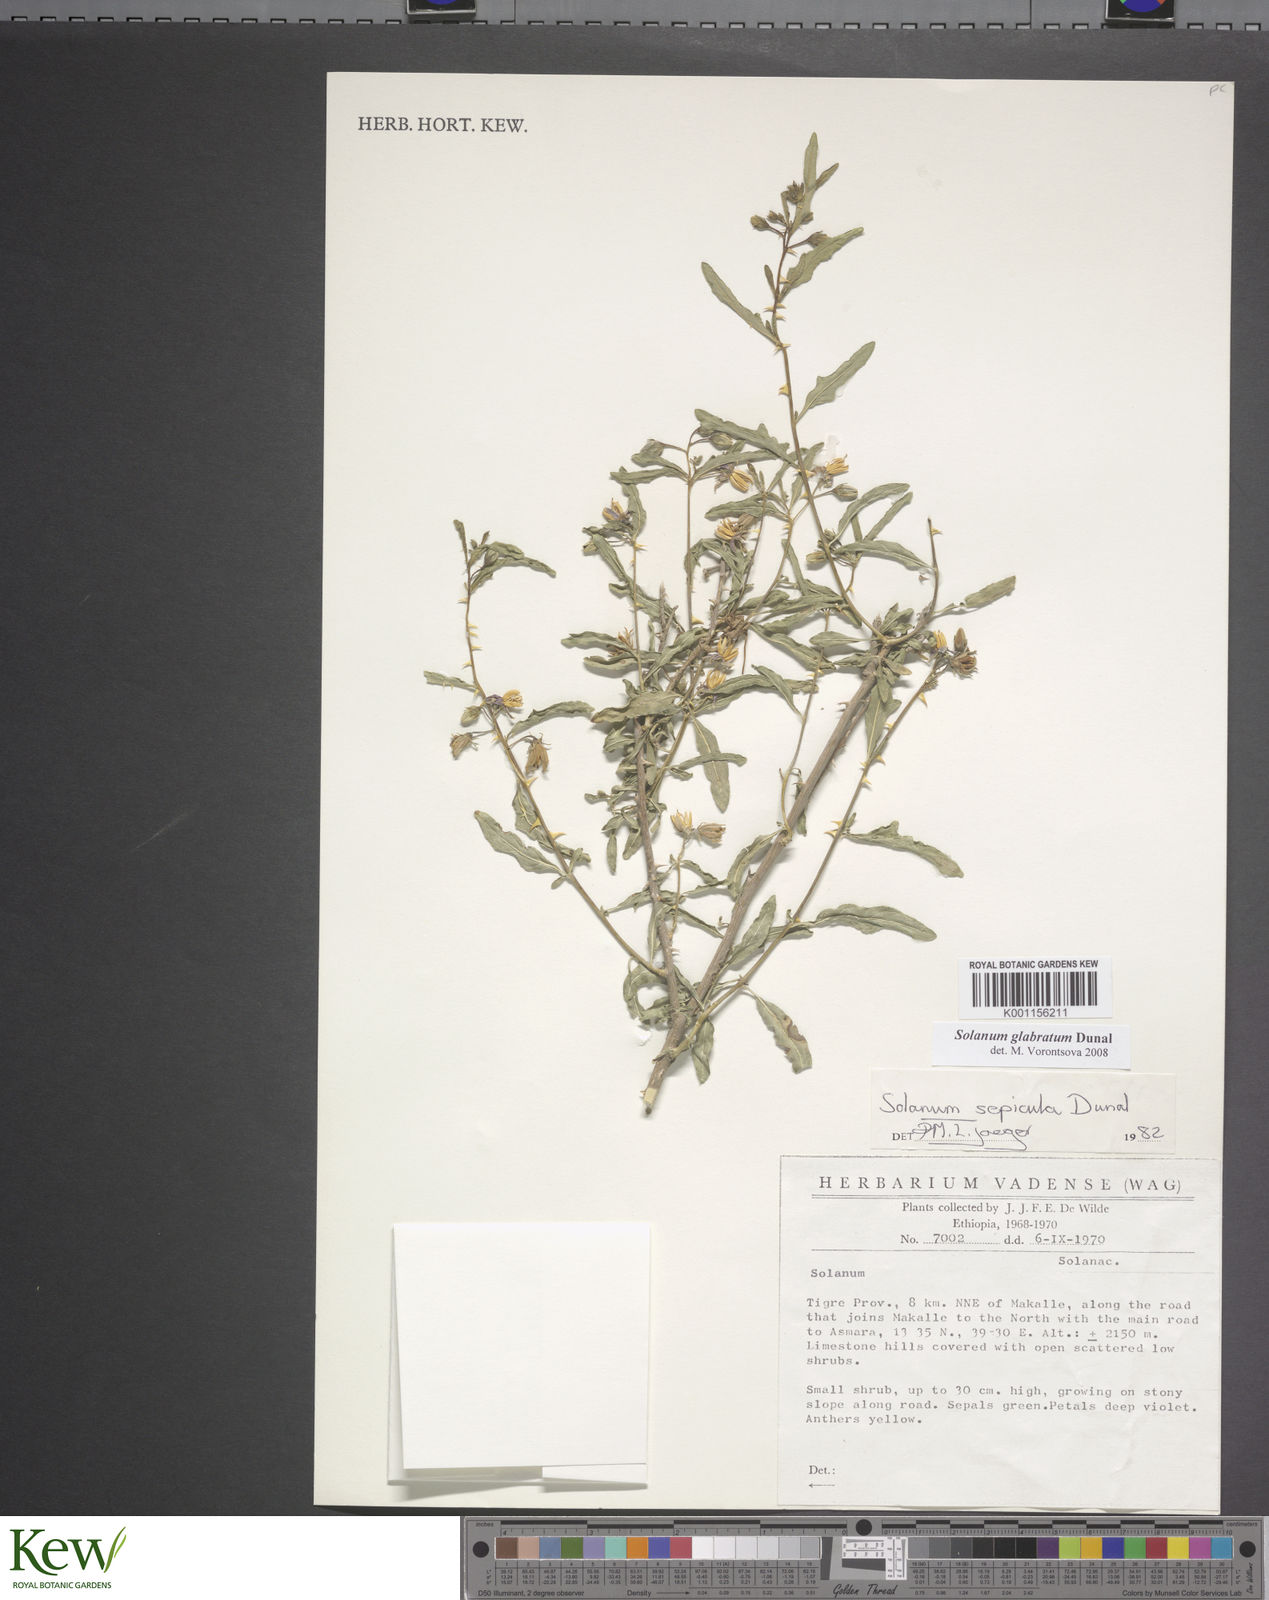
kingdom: Plantae
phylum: Tracheophyta
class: Magnoliopsida
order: Solanales
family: Solanaceae
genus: Solanum
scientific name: Solanum glabratum
